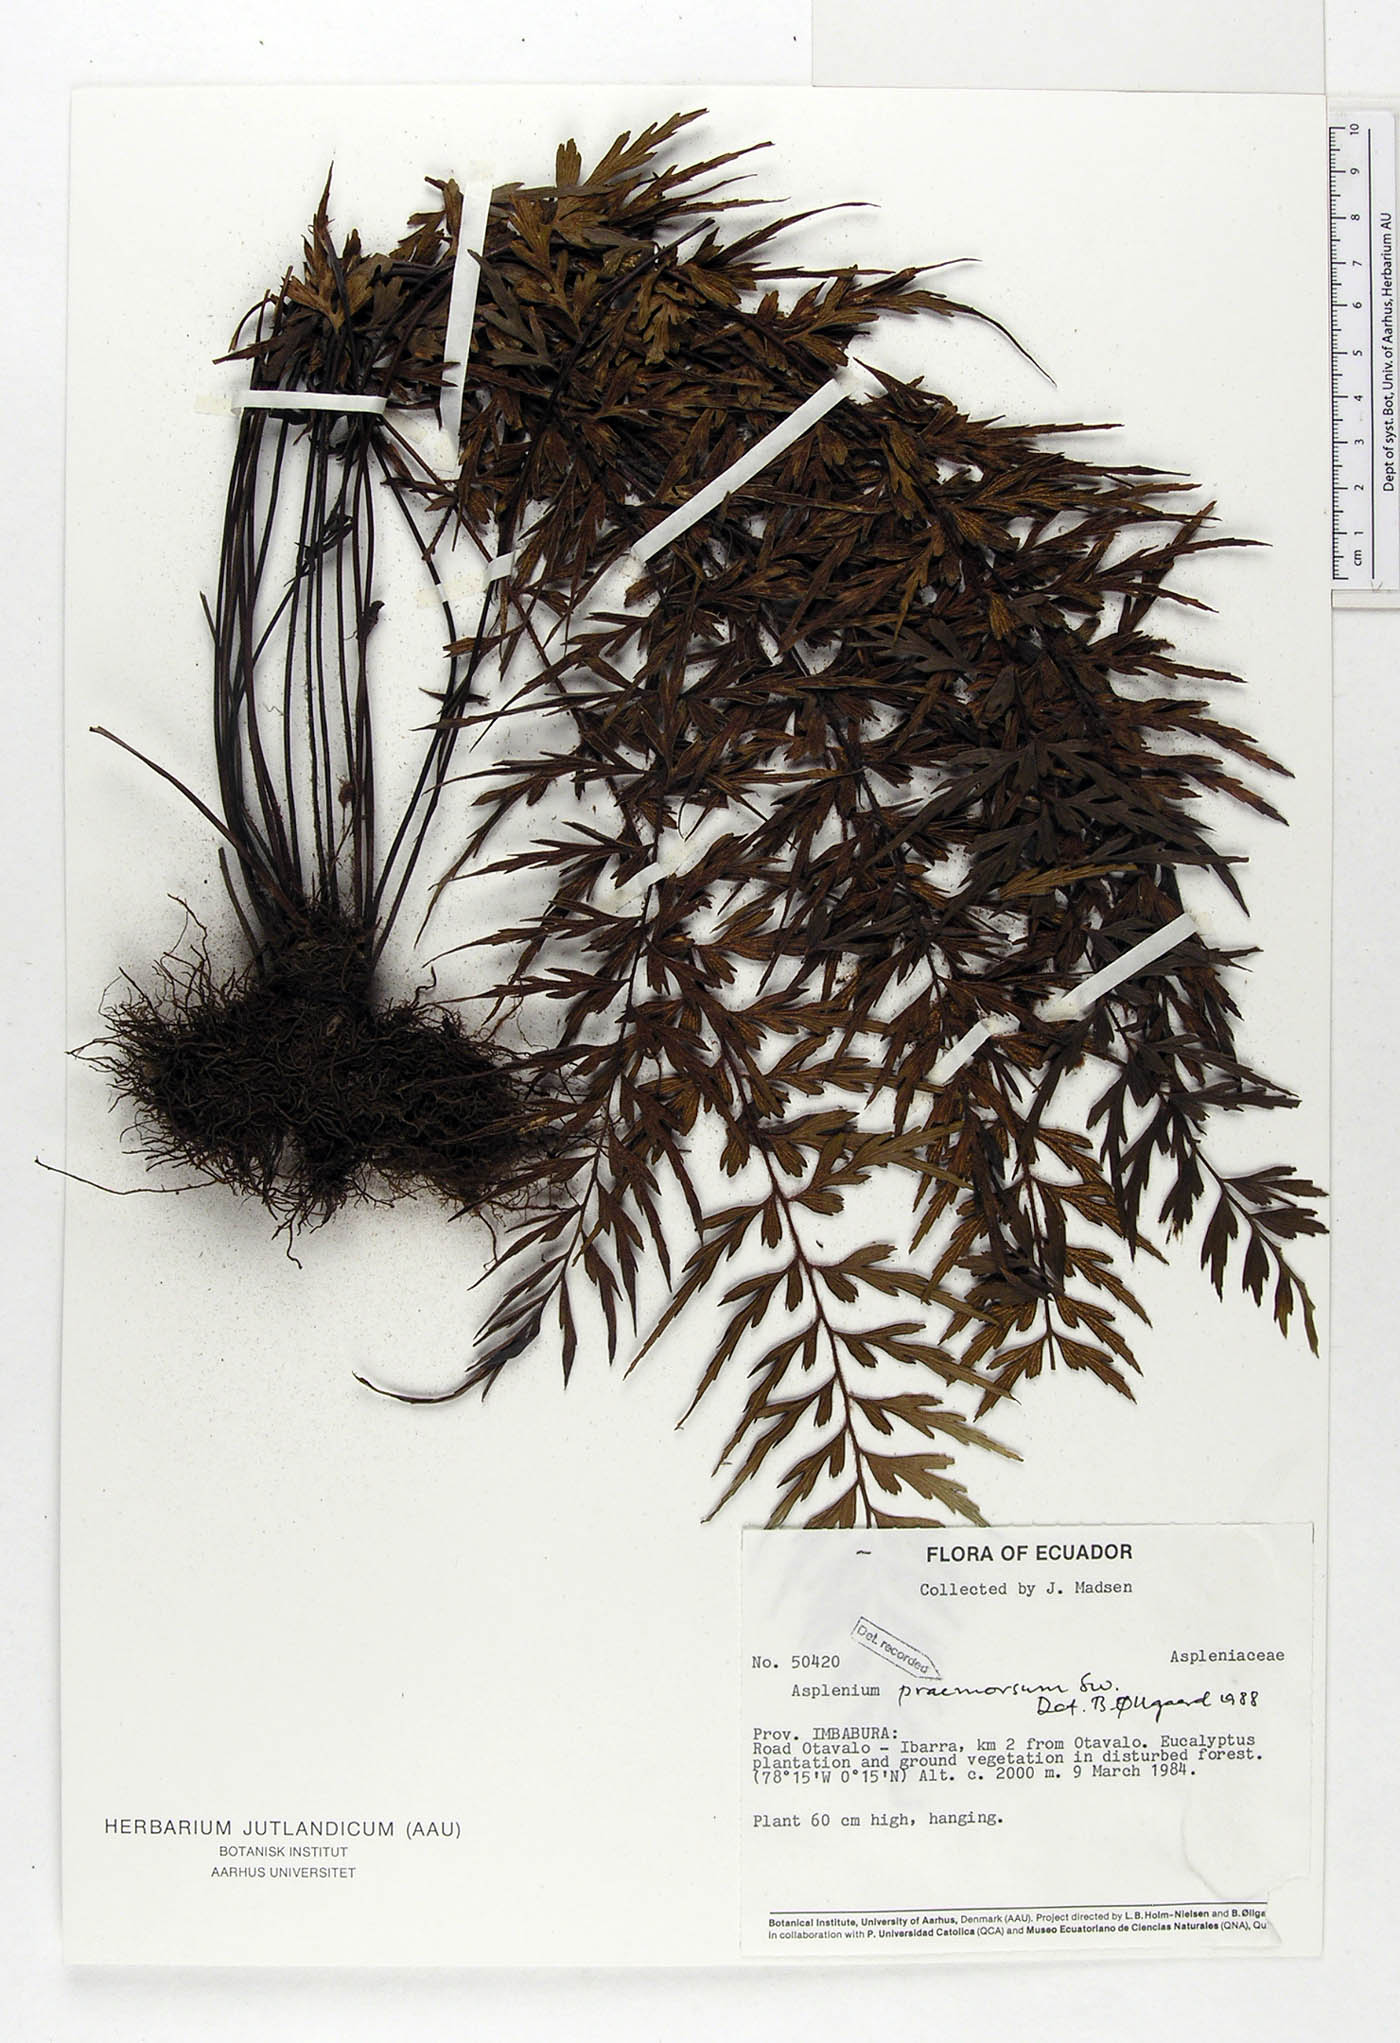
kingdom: Plantae
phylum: Tracheophyta
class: Polypodiopsida
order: Polypodiales
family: Aspleniaceae
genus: Asplenium
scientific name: Asplenium praemorsum
